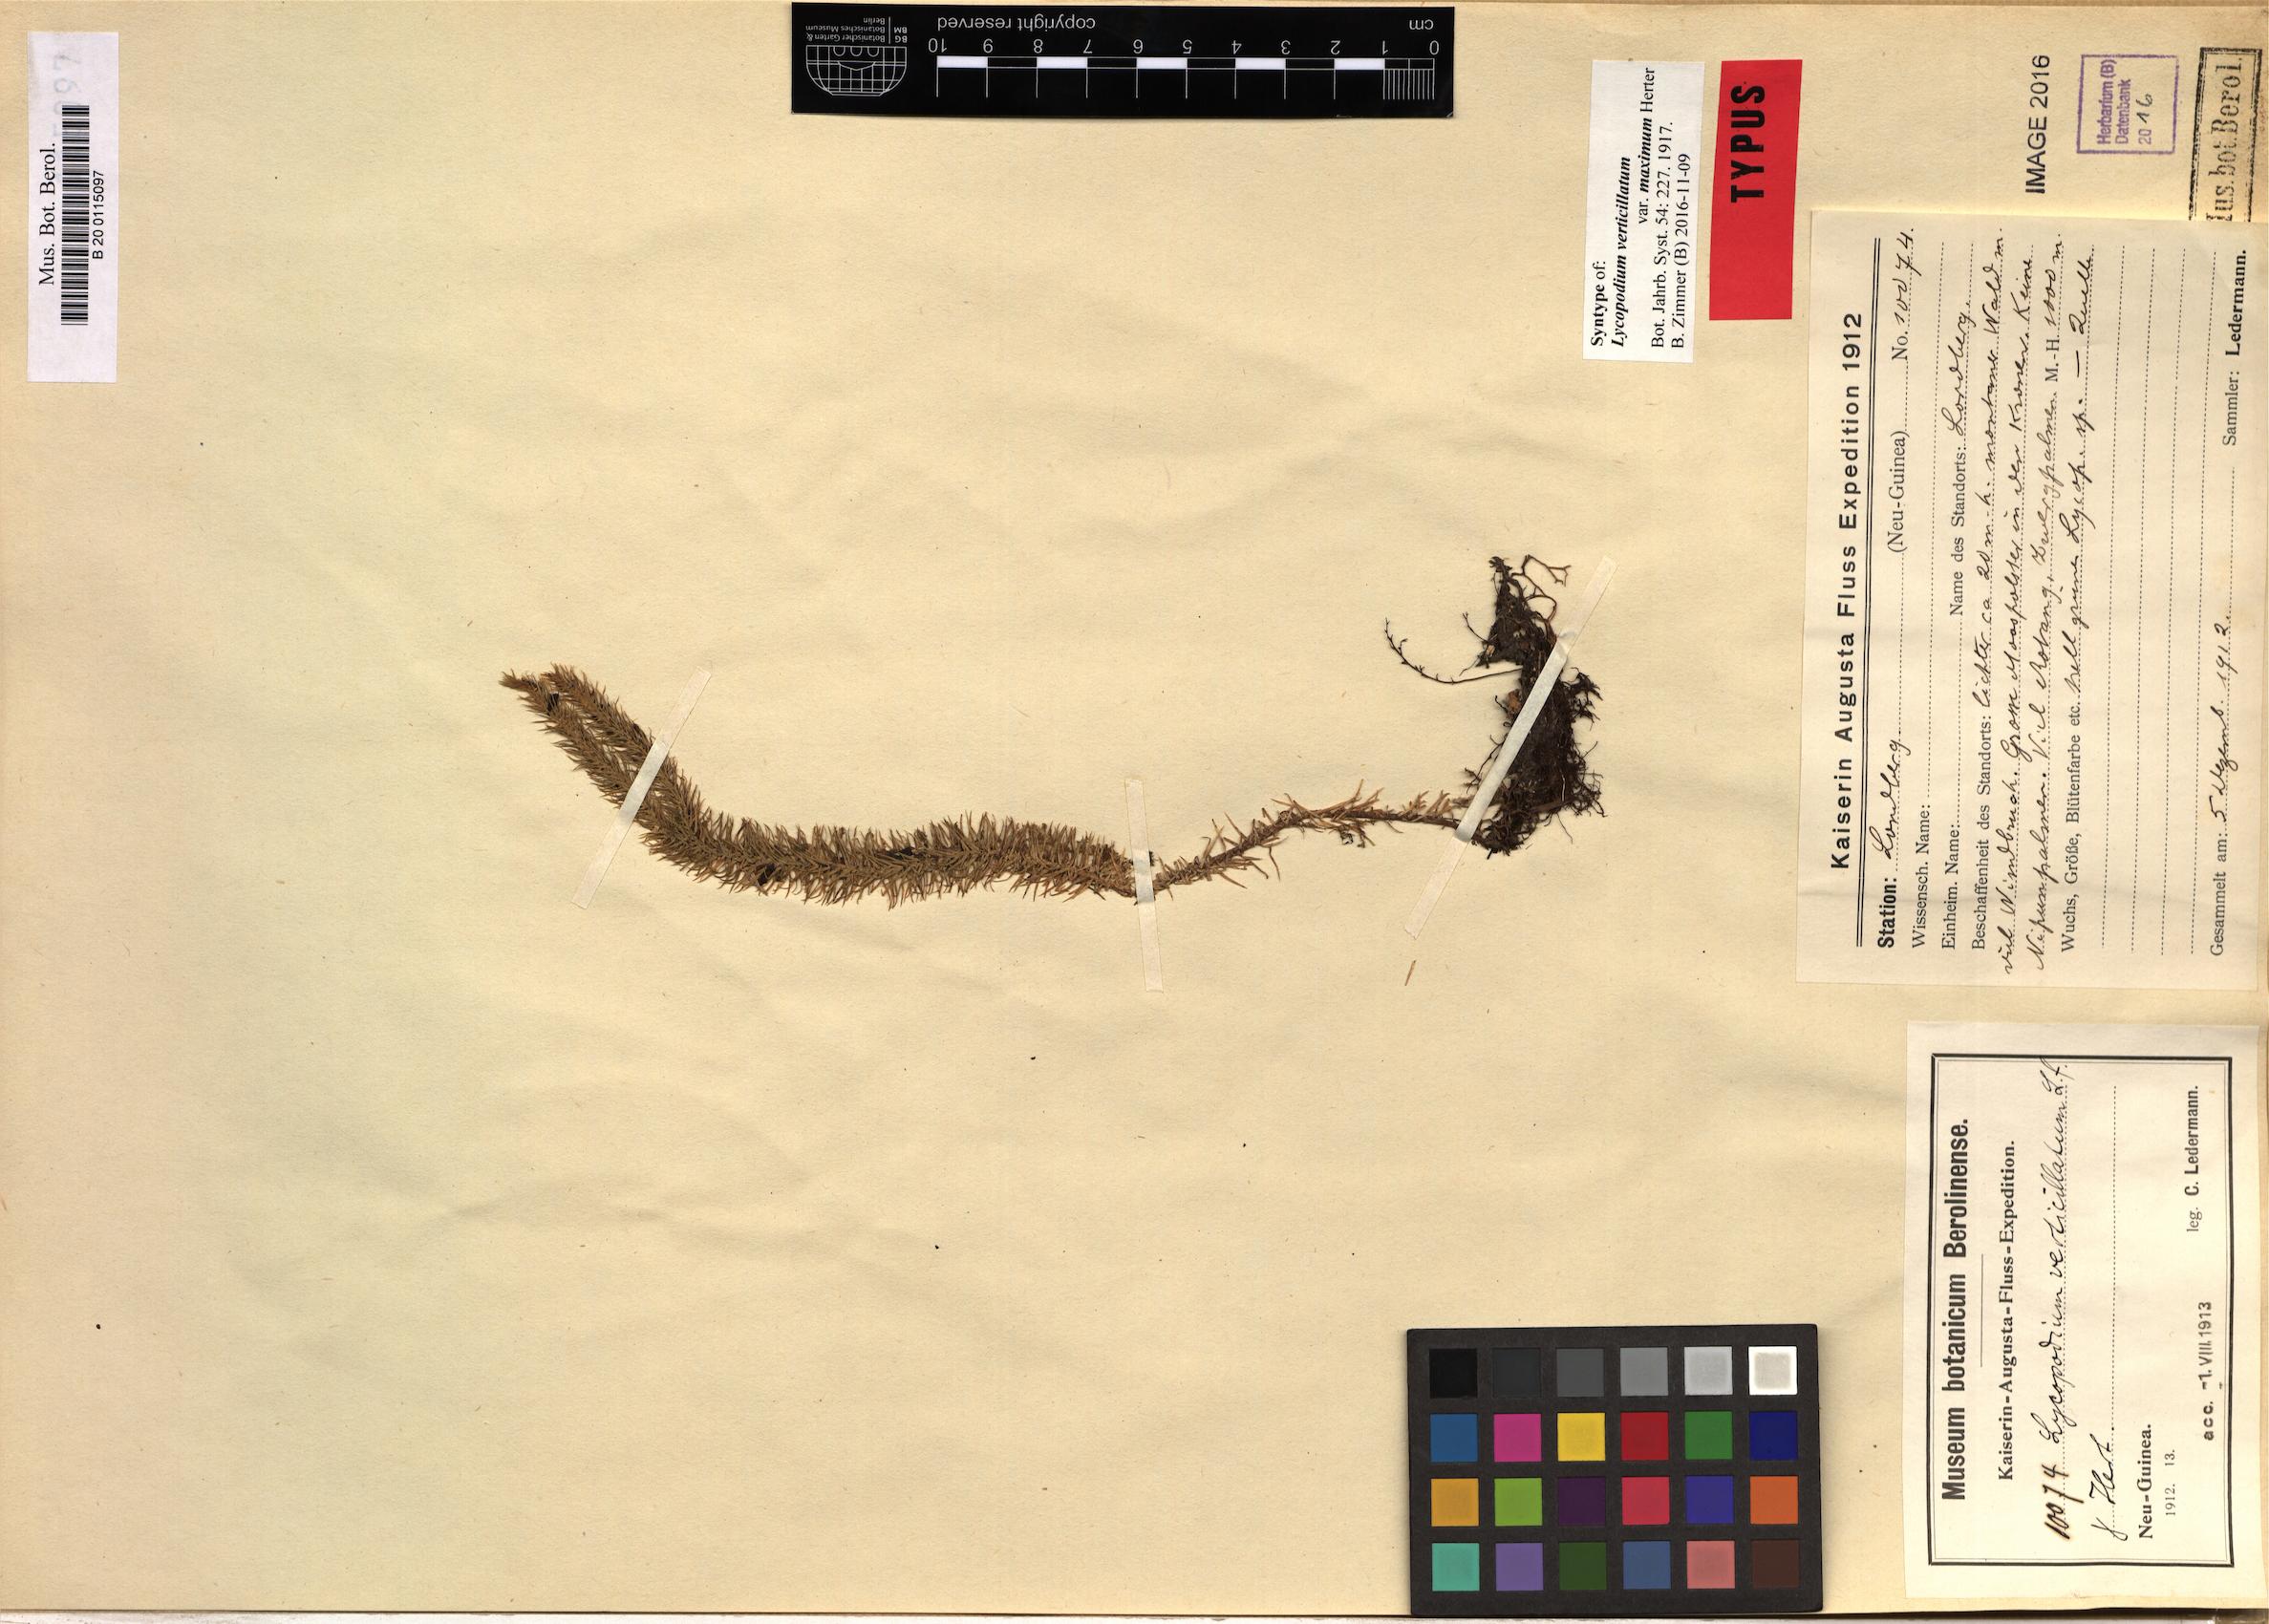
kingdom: Plantae
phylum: Tracheophyta
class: Lycopodiopsida
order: Lycopodiales
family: Lycopodiaceae
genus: Phlegmariurus
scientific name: Phlegmariurus verticillatus
